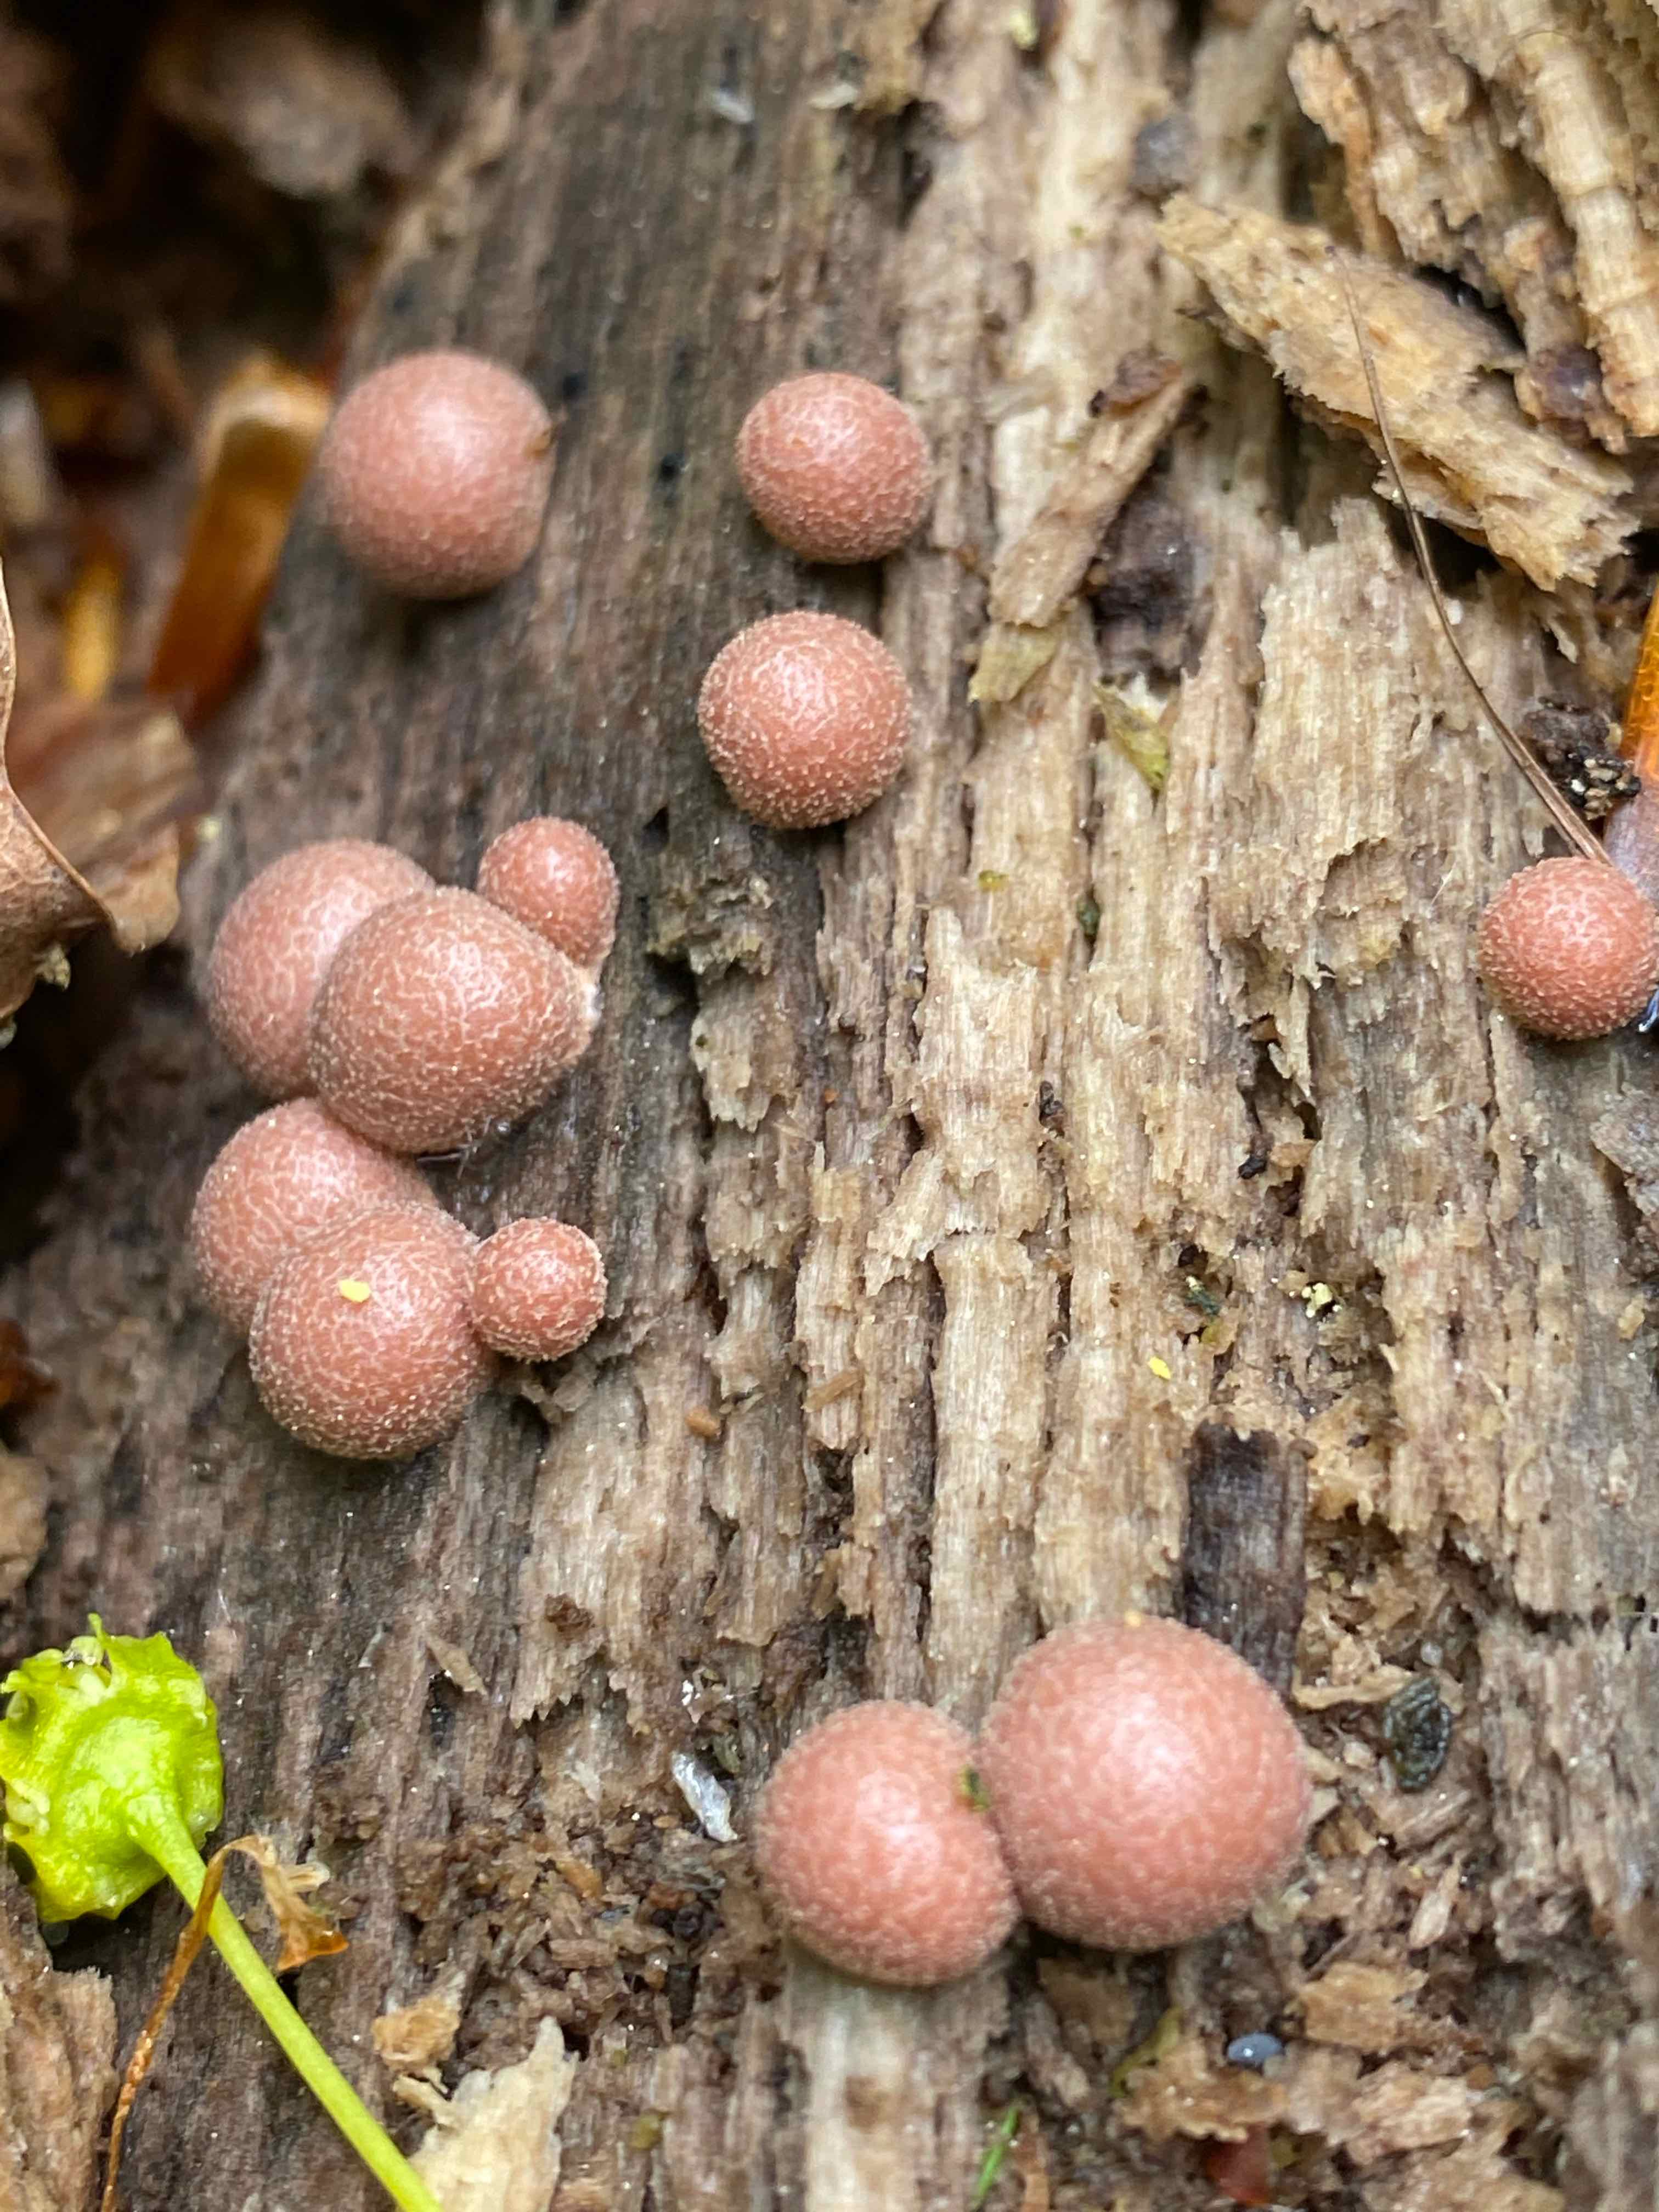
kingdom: Protozoa
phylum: Mycetozoa
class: Myxomycetes
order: Cribrariales
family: Tubiferaceae
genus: Lycogala
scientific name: Lycogala epidendrum
